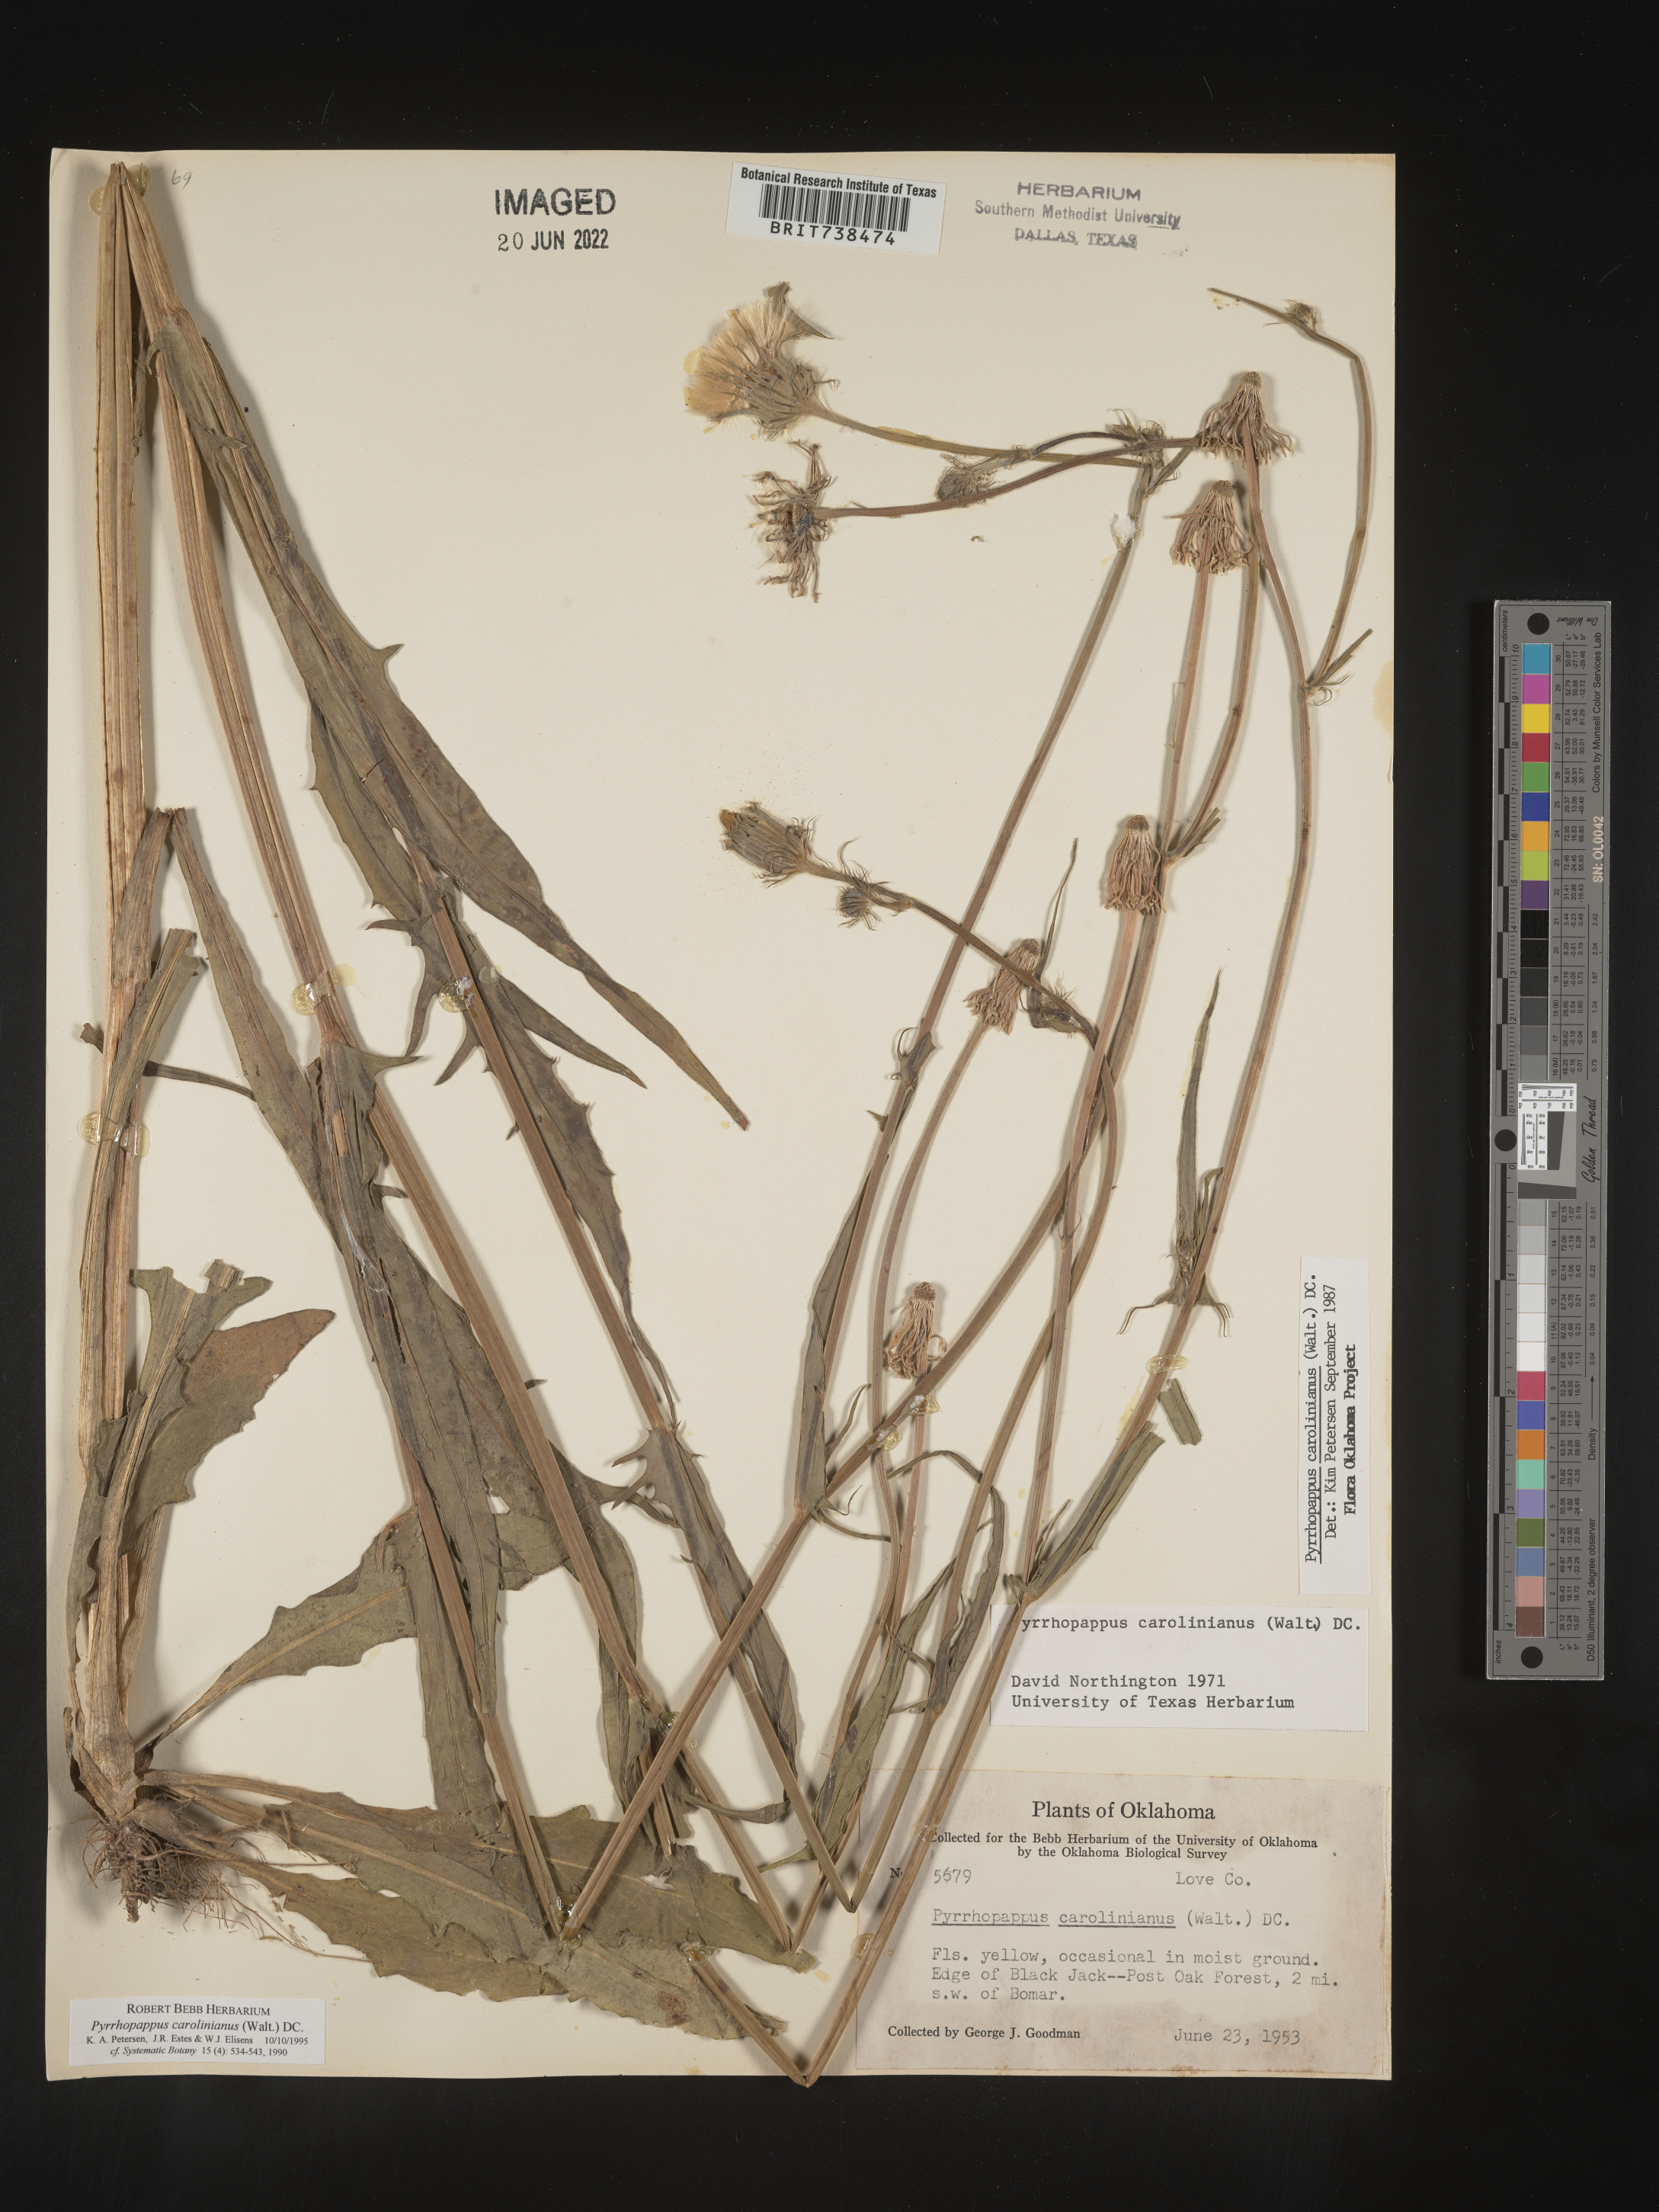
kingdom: Plantae
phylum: Tracheophyta
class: Magnoliopsida
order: Asterales
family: Asteraceae
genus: Pyrrhopappus
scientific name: Pyrrhopappus carolinianus
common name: Carolina desert-chicory
